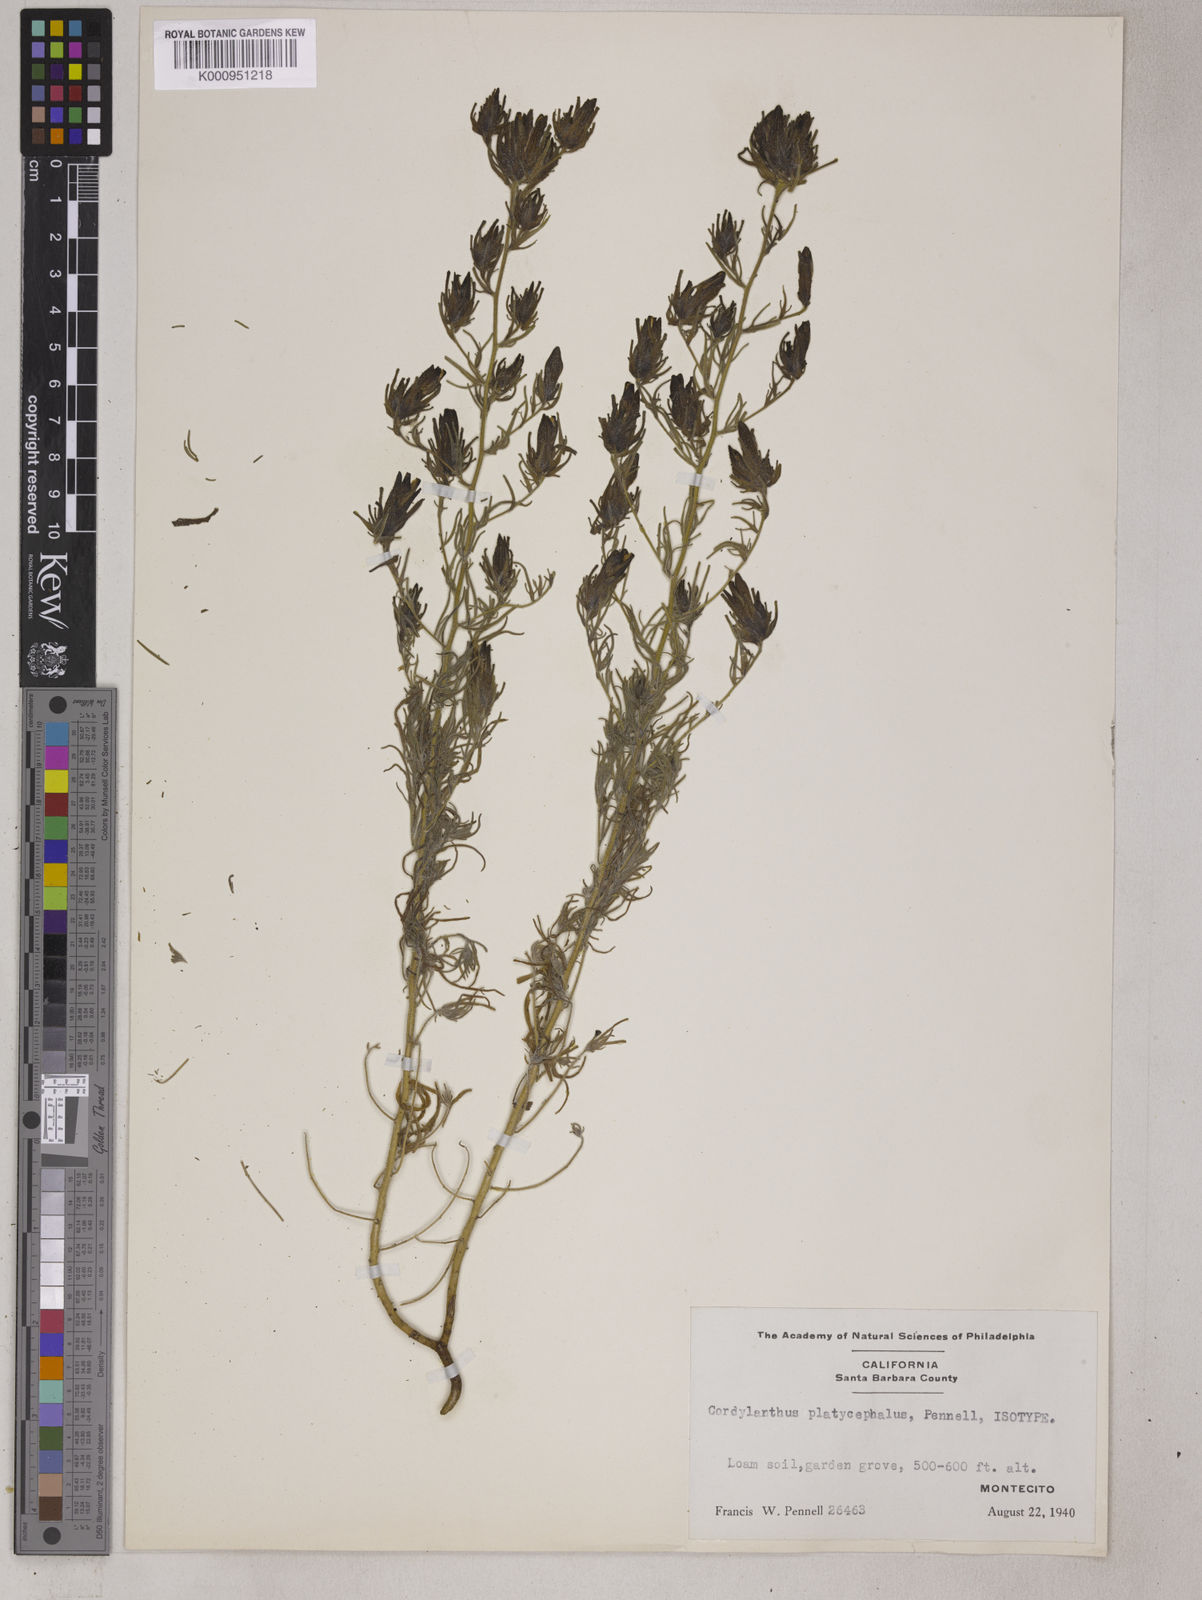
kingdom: Plantae
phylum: Tracheophyta
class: Magnoliopsida
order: Lamiales
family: Orobanchaceae
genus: Cordylanthus
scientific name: Cordylanthus rigidus
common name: Stiff-branch bird's-beak
